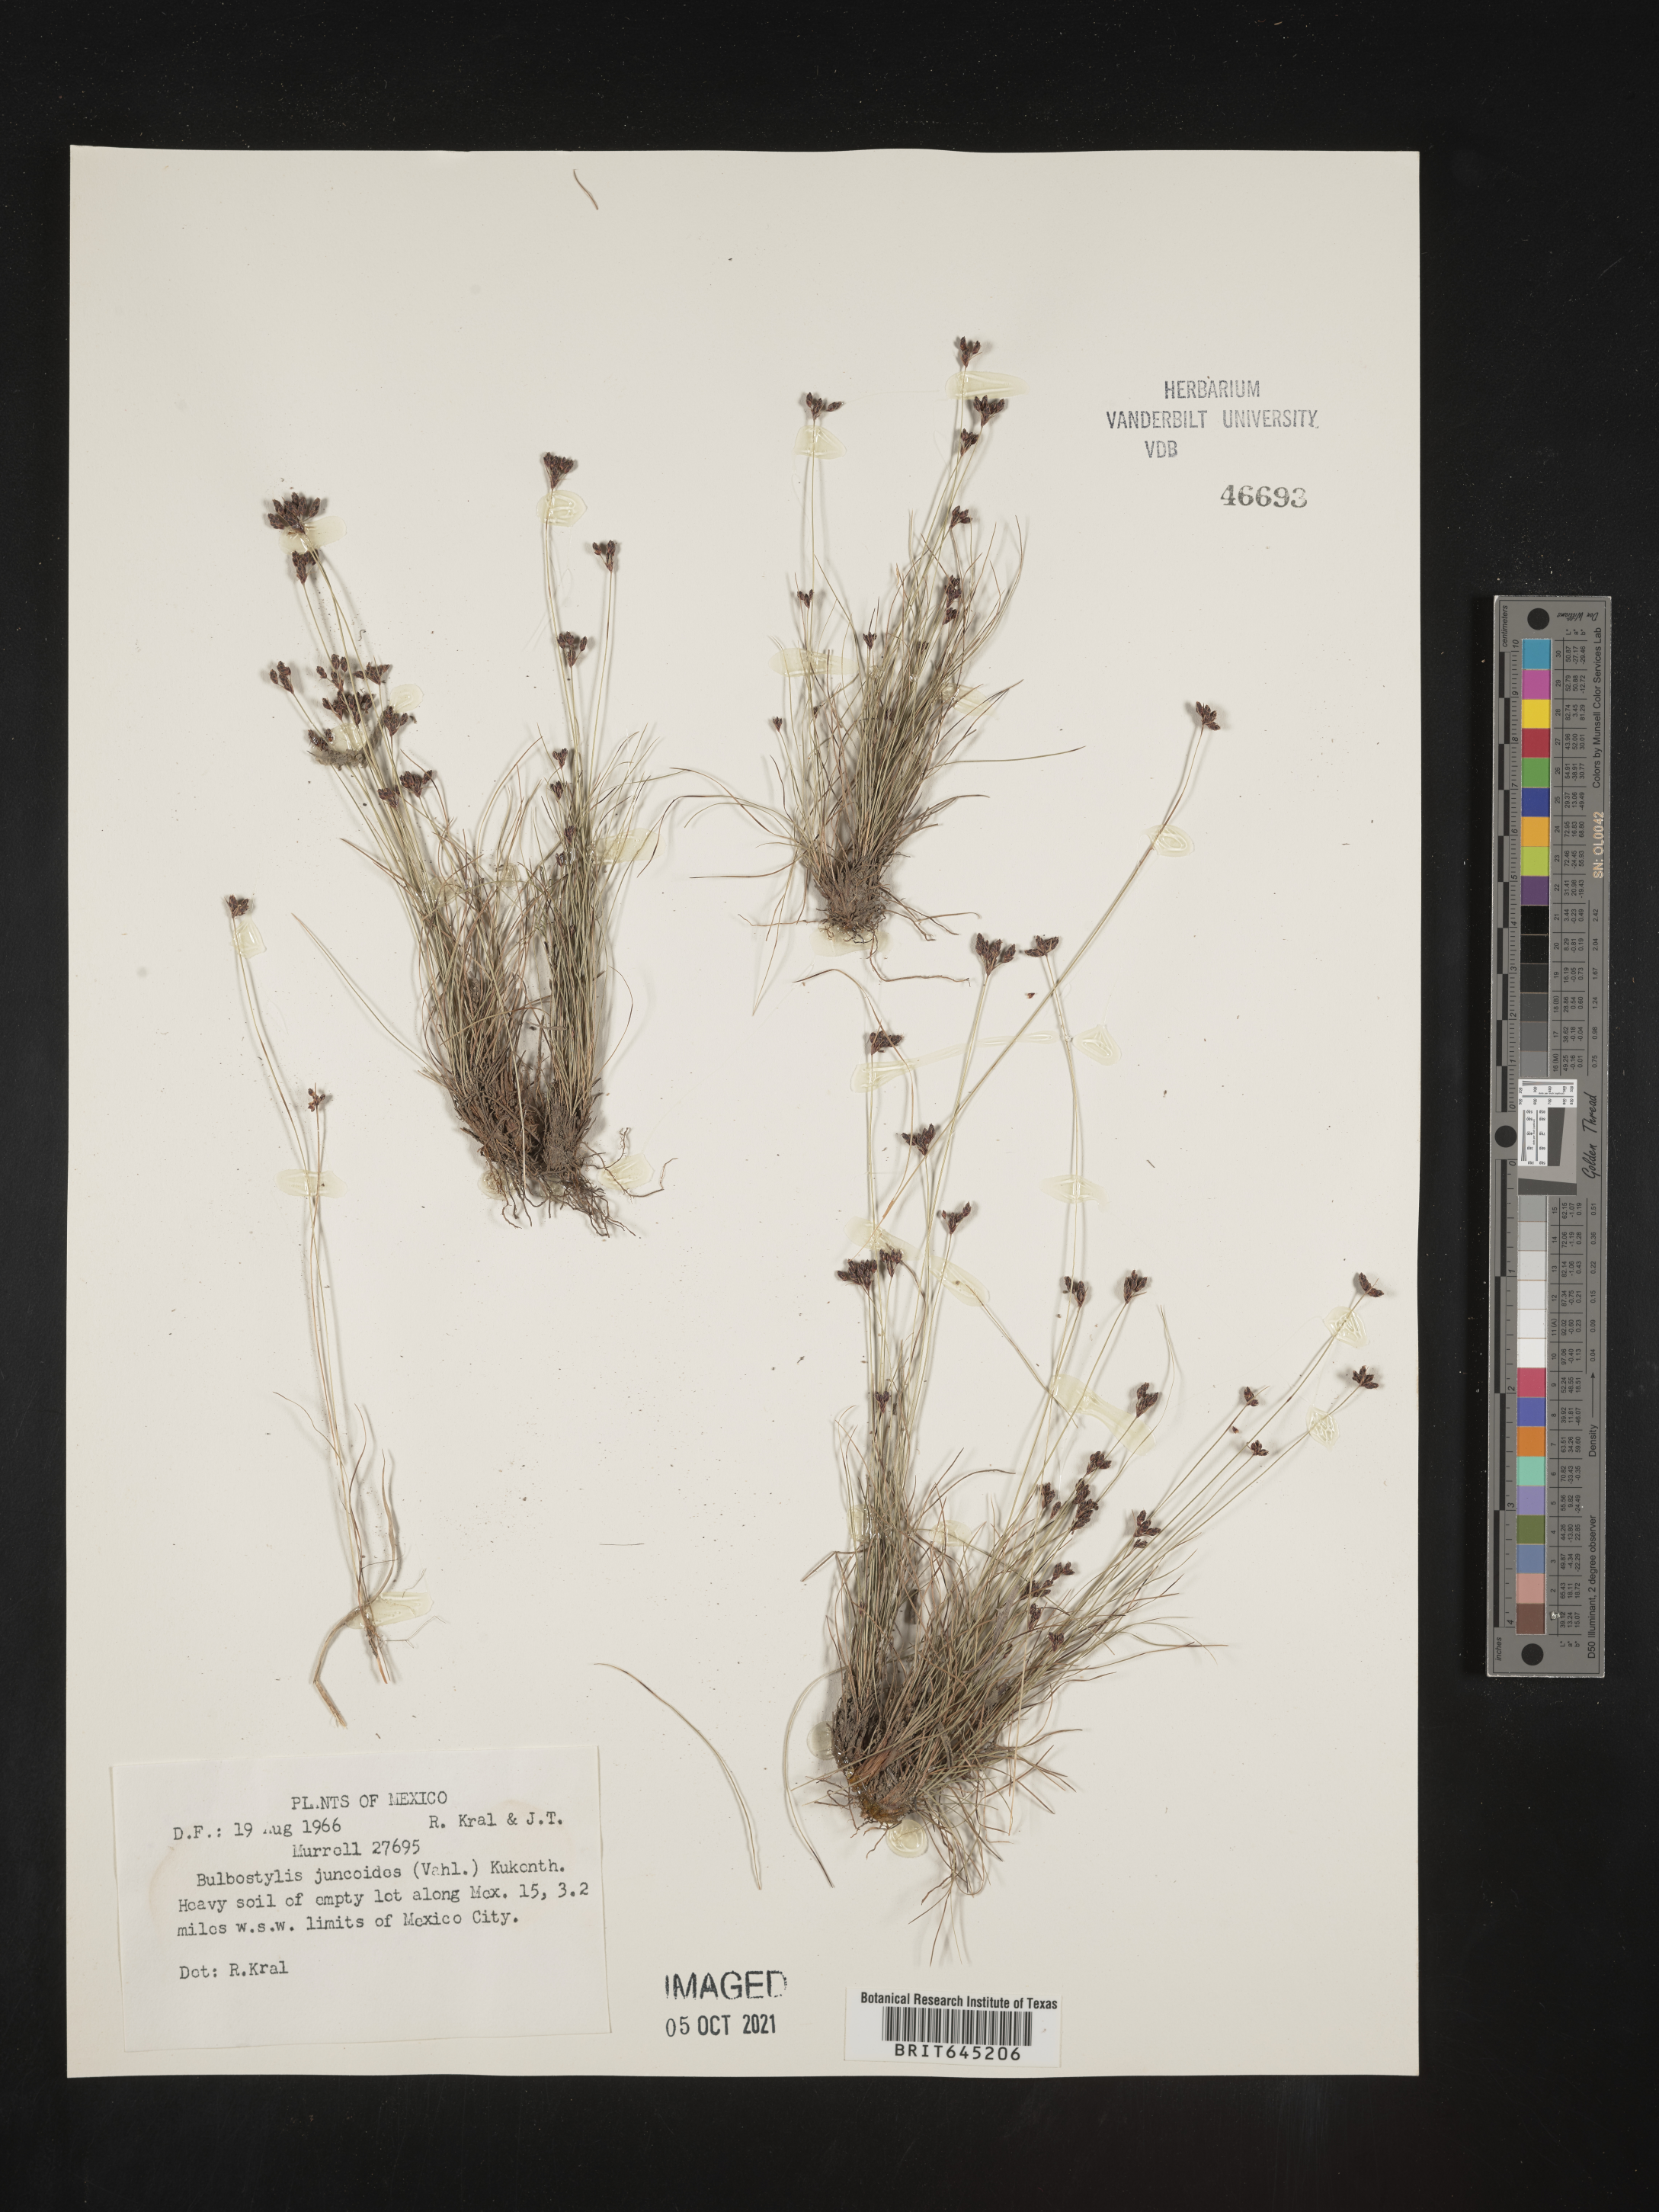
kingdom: Plantae
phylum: Tracheophyta
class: Liliopsida
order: Poales
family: Cyperaceae
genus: Bulbostylis
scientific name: Bulbostylis juncoides
